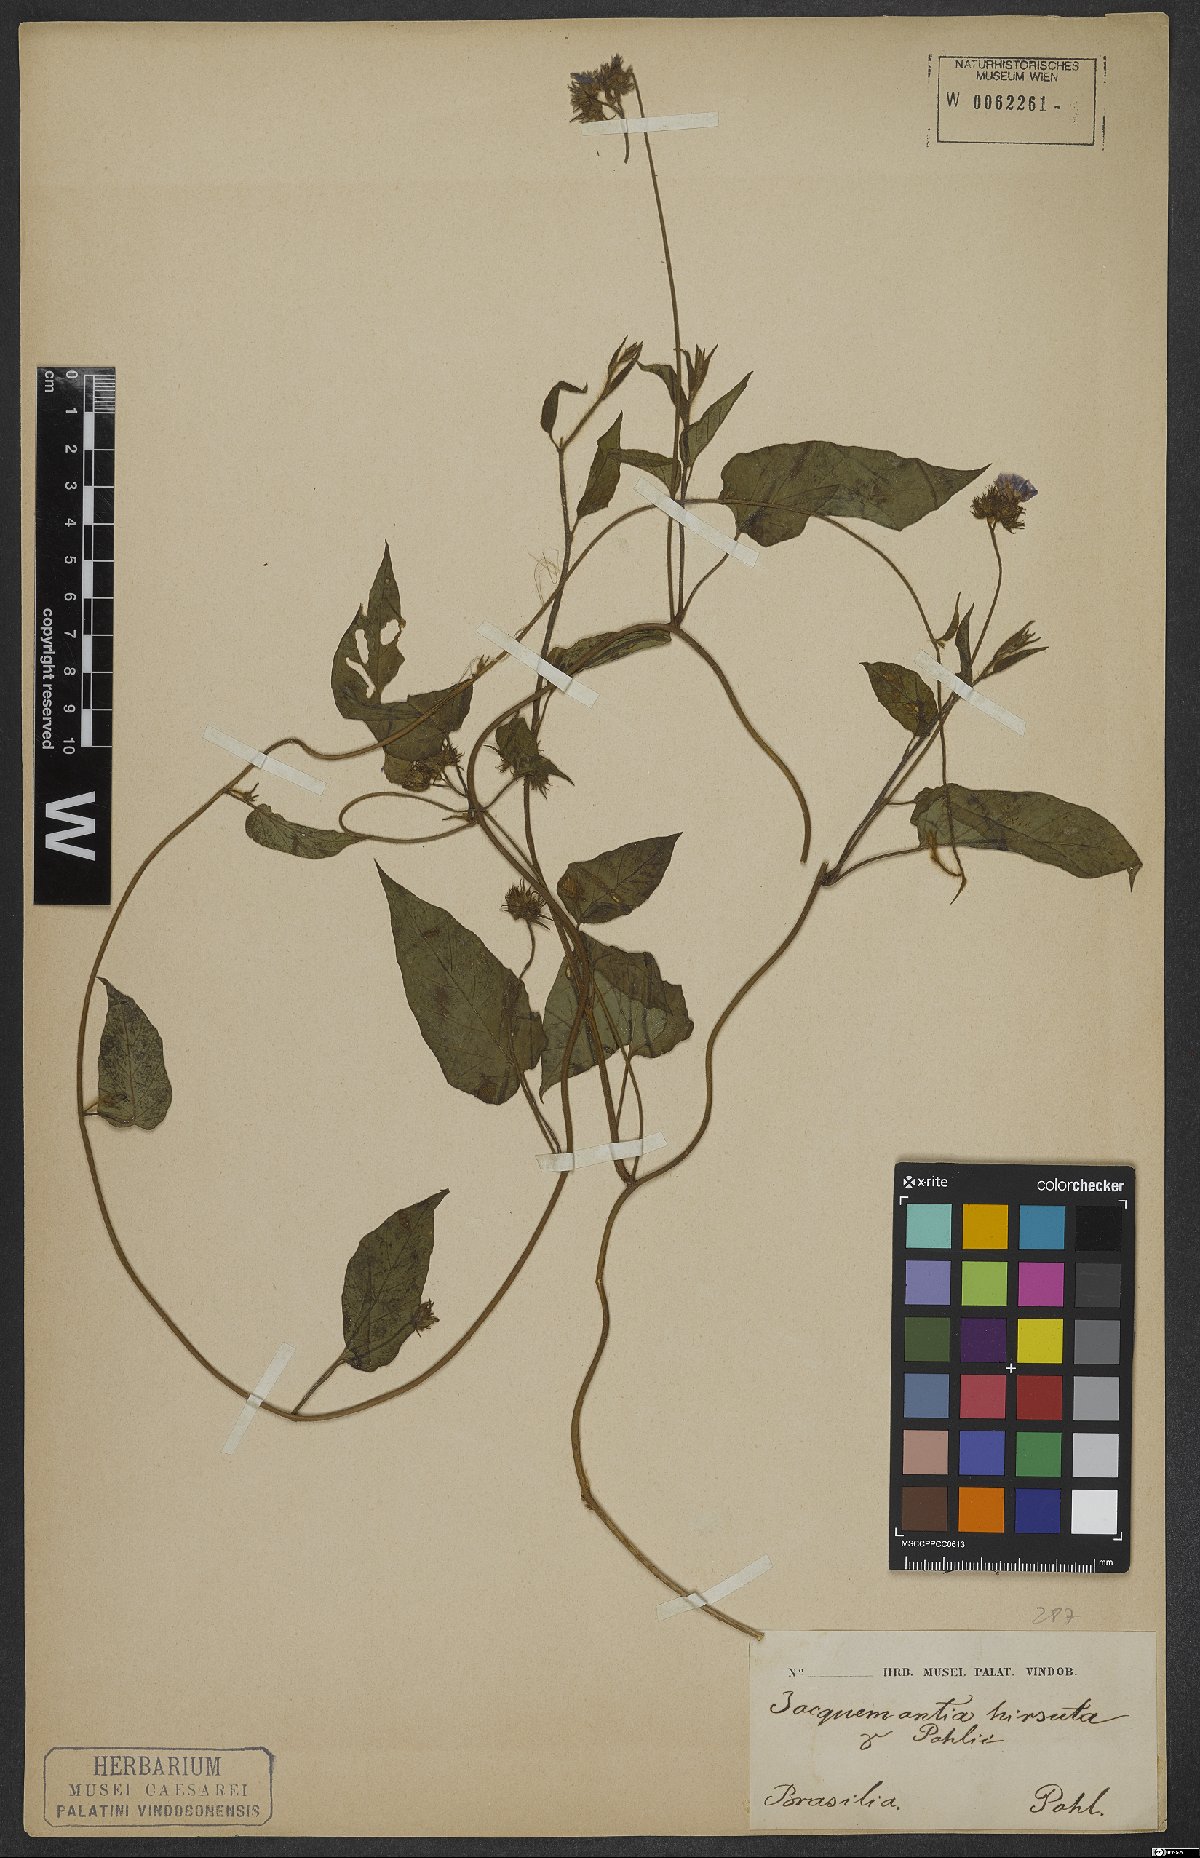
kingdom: Plantae
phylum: Tracheophyta
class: Magnoliopsida
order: Solanales
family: Convolvulaceae
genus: Jacquemontia
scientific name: Jacquemontia sphaerostigma
